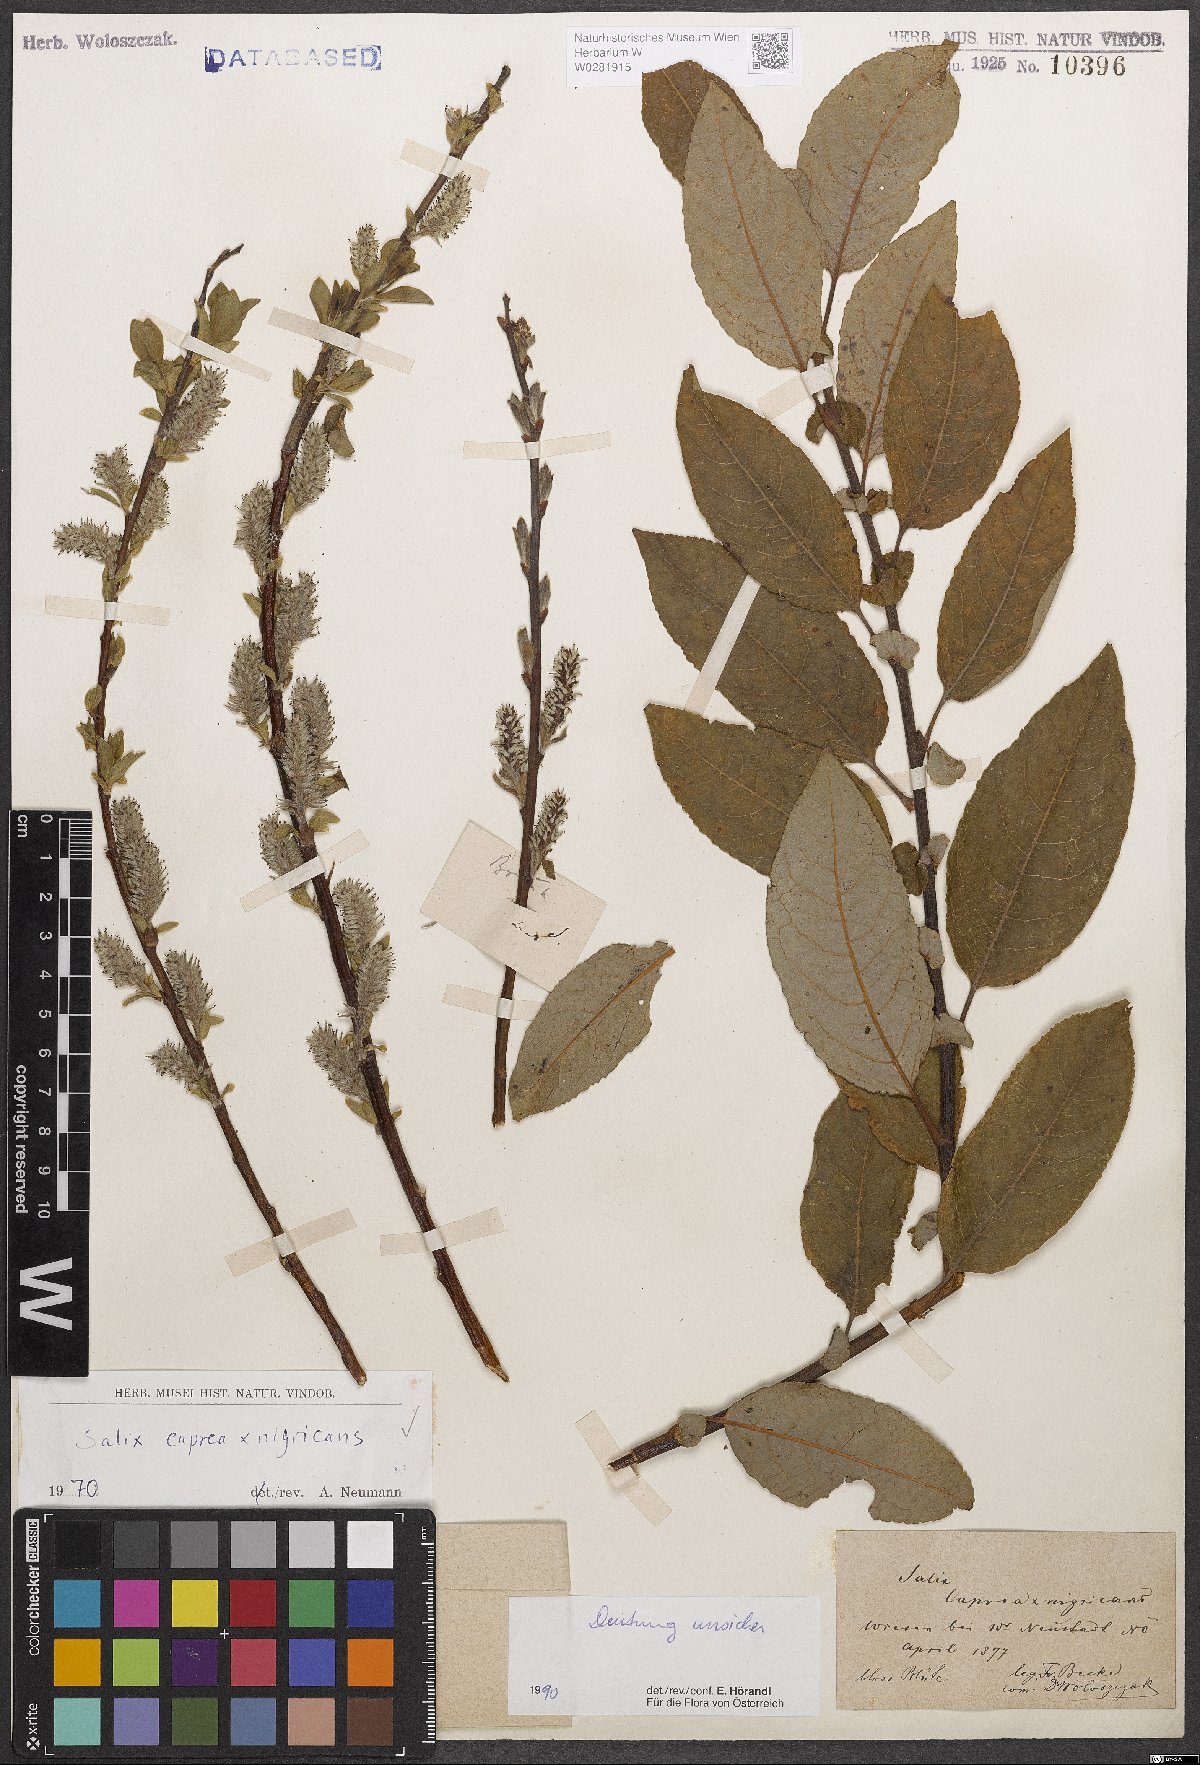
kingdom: Plantae
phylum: Tracheophyta
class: Magnoliopsida
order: Malpighiales
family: Salicaceae
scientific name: Salicaceae
